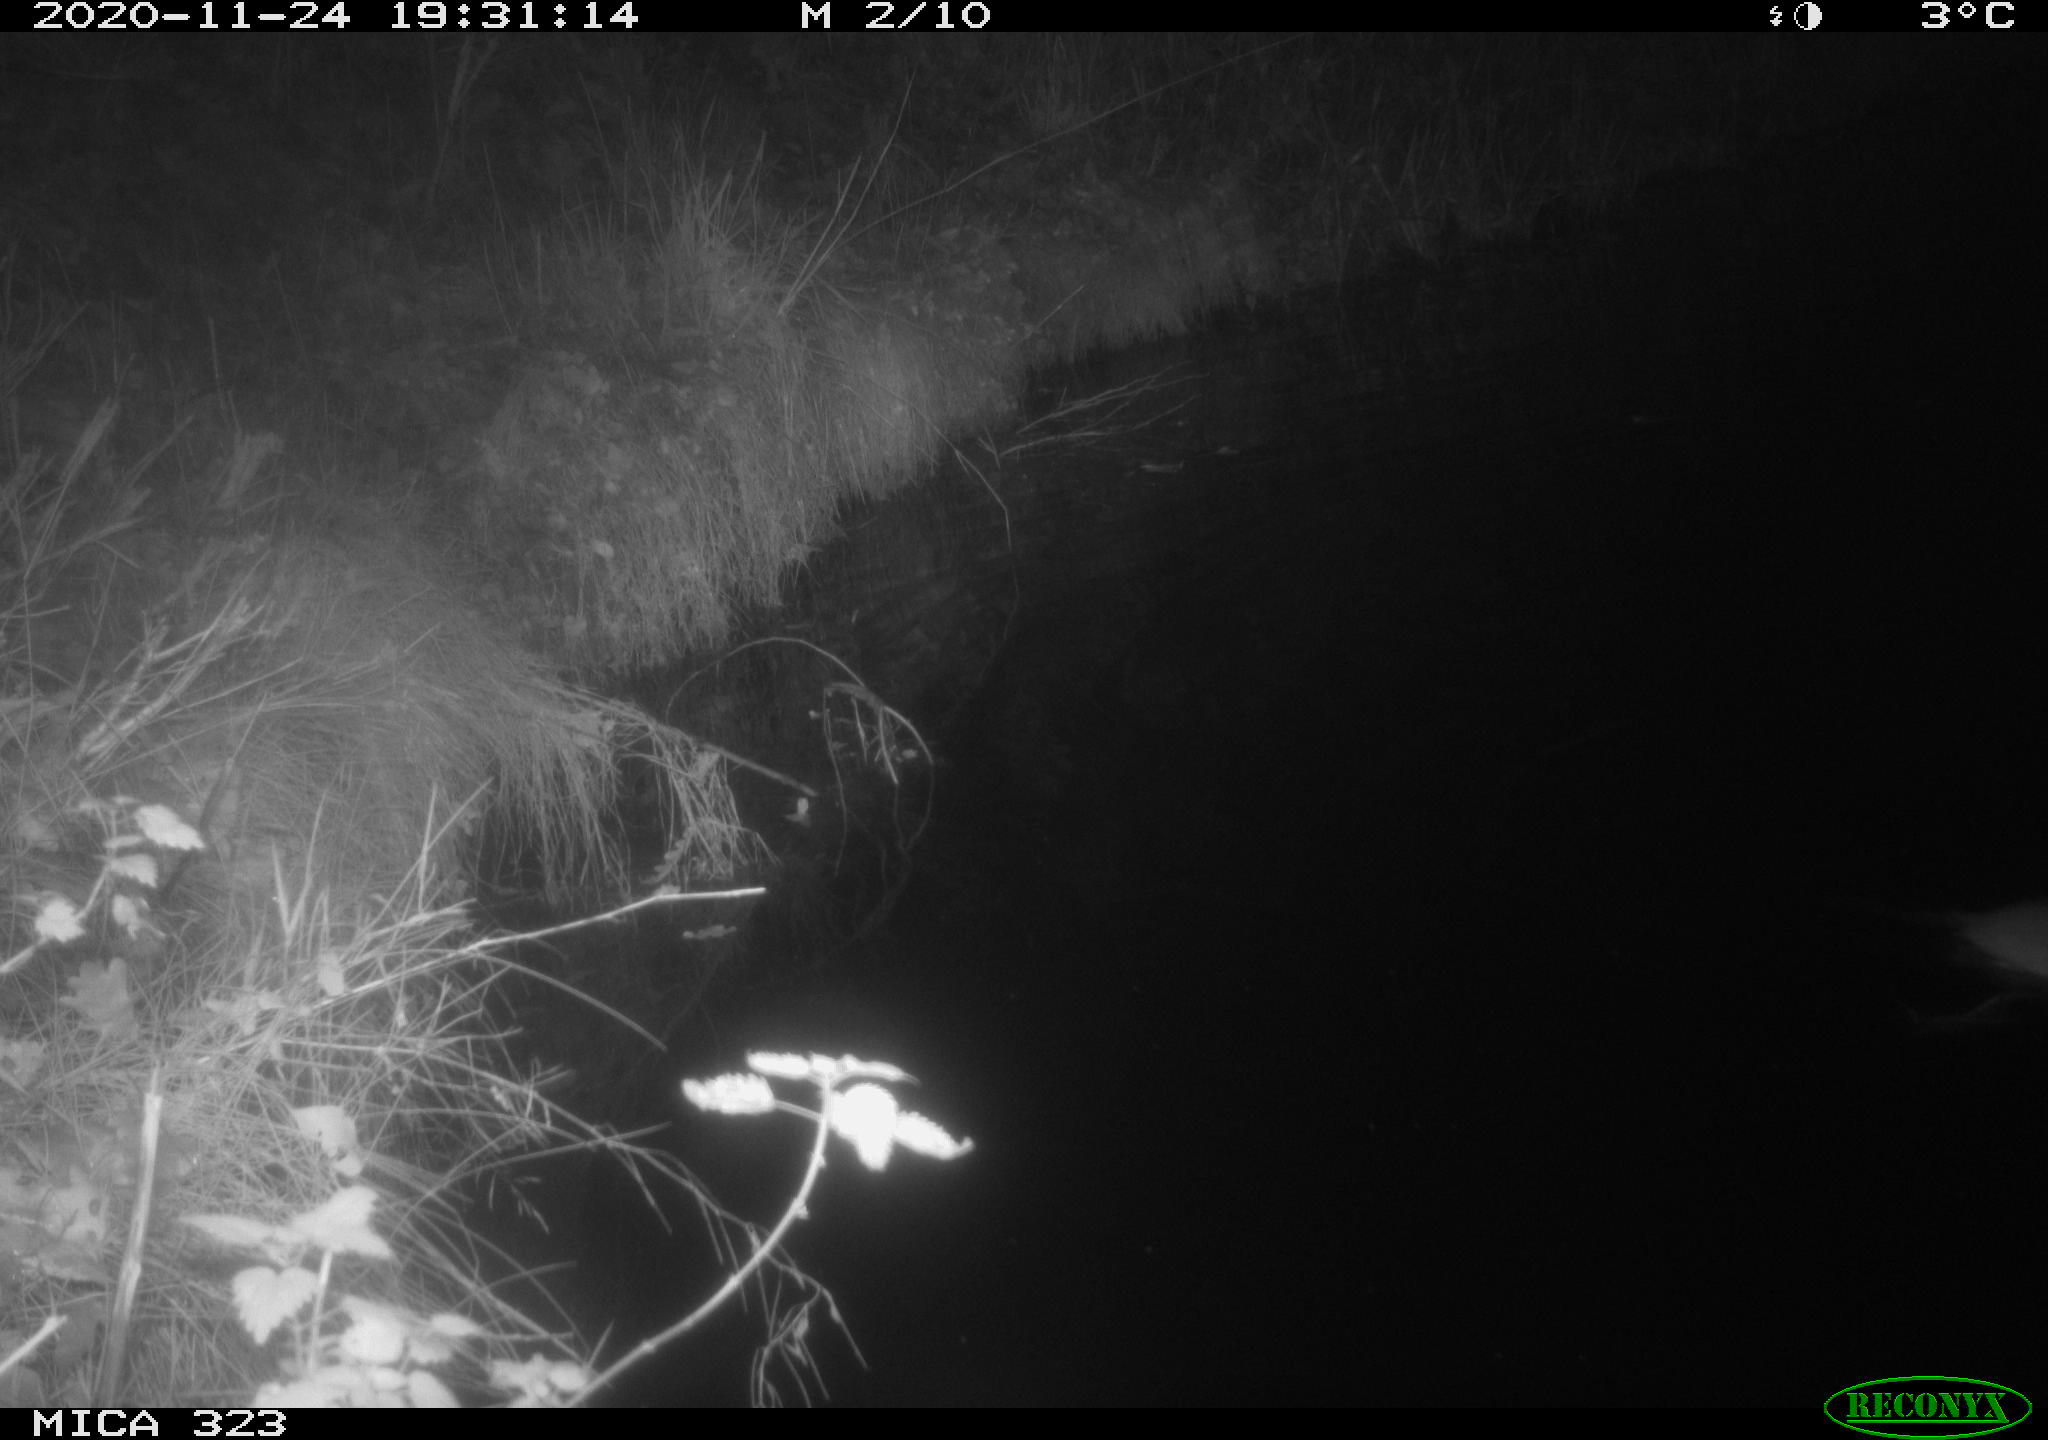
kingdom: Animalia
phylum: Chordata
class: Mammalia
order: Rodentia
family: Myocastoridae
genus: Myocastor
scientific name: Myocastor coypus
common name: Coypu
